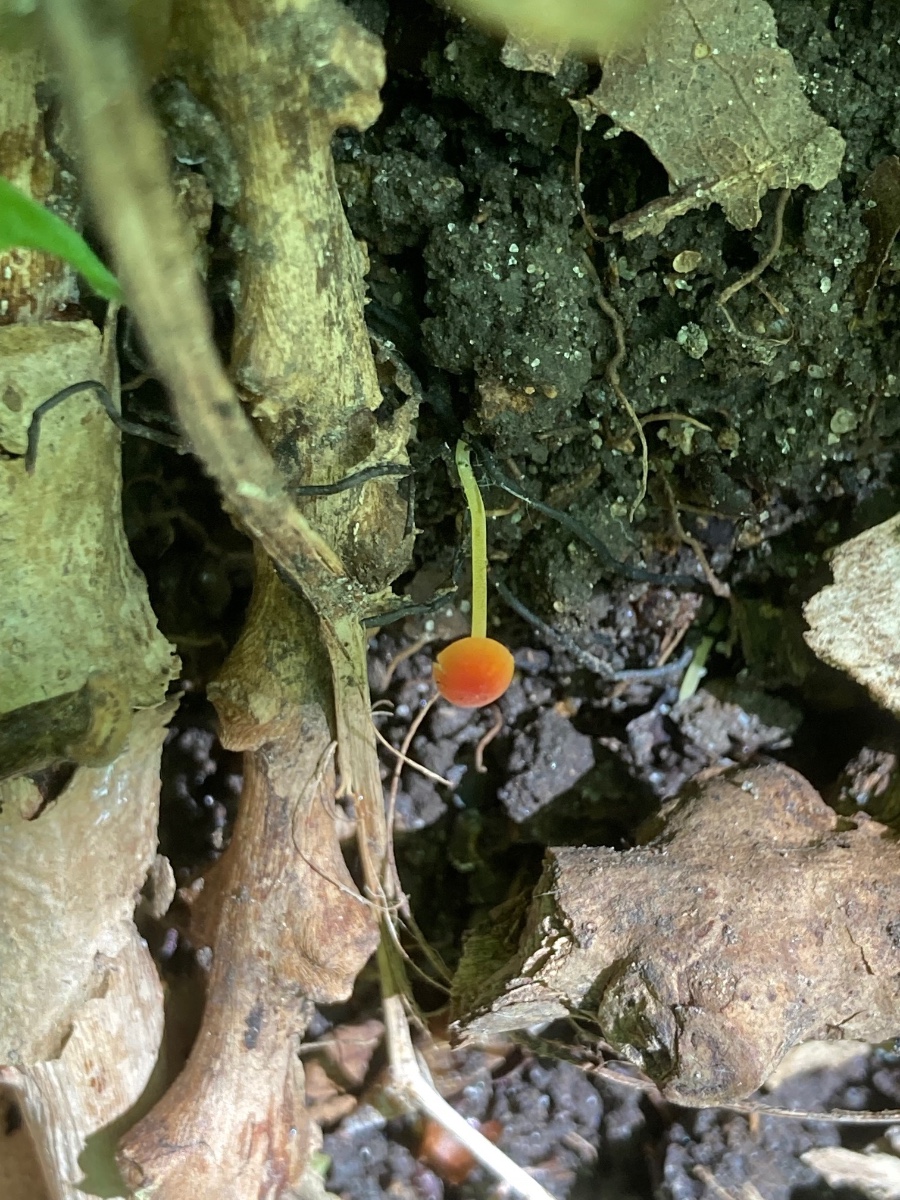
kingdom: Fungi
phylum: Basidiomycota
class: Agaricomycetes
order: Agaricales
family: Mycenaceae
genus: Mycena
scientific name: Mycena acicula
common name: orange huesvamp
